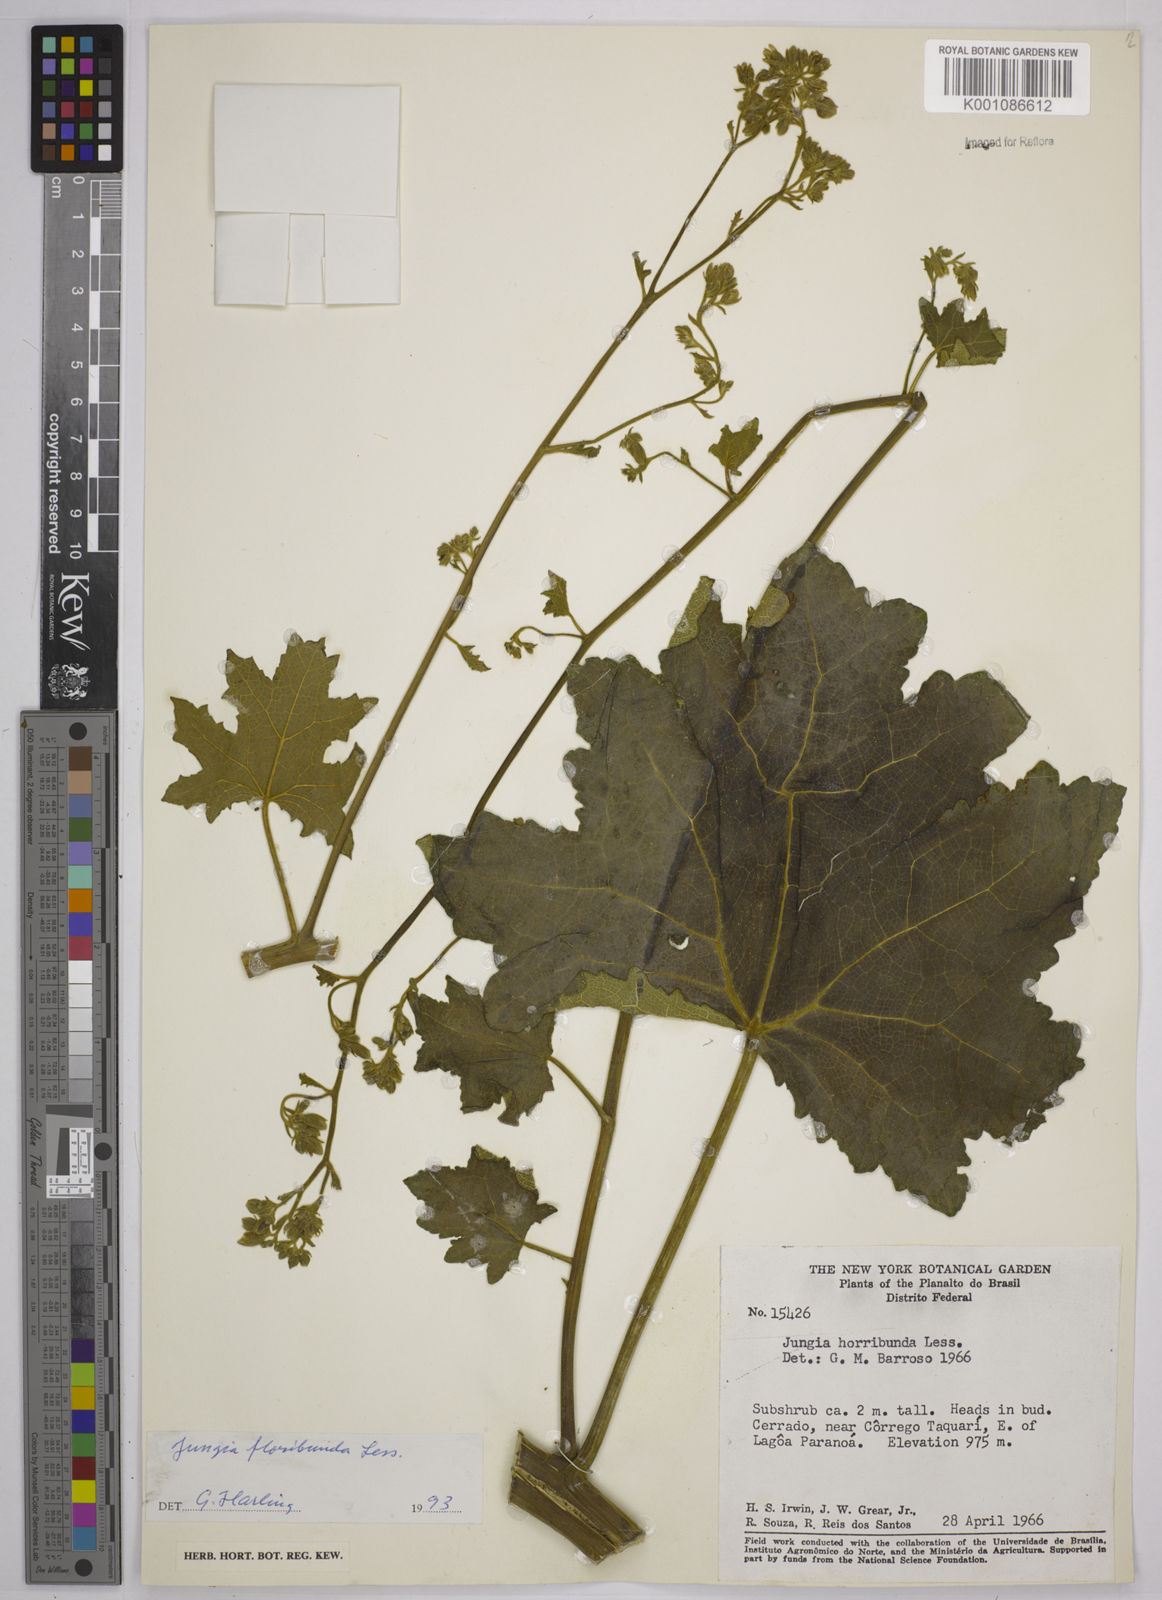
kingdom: Plantae
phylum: Tracheophyta
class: Magnoliopsida
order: Asterales
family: Asteraceae
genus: Jungia
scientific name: Jungia floribunda
